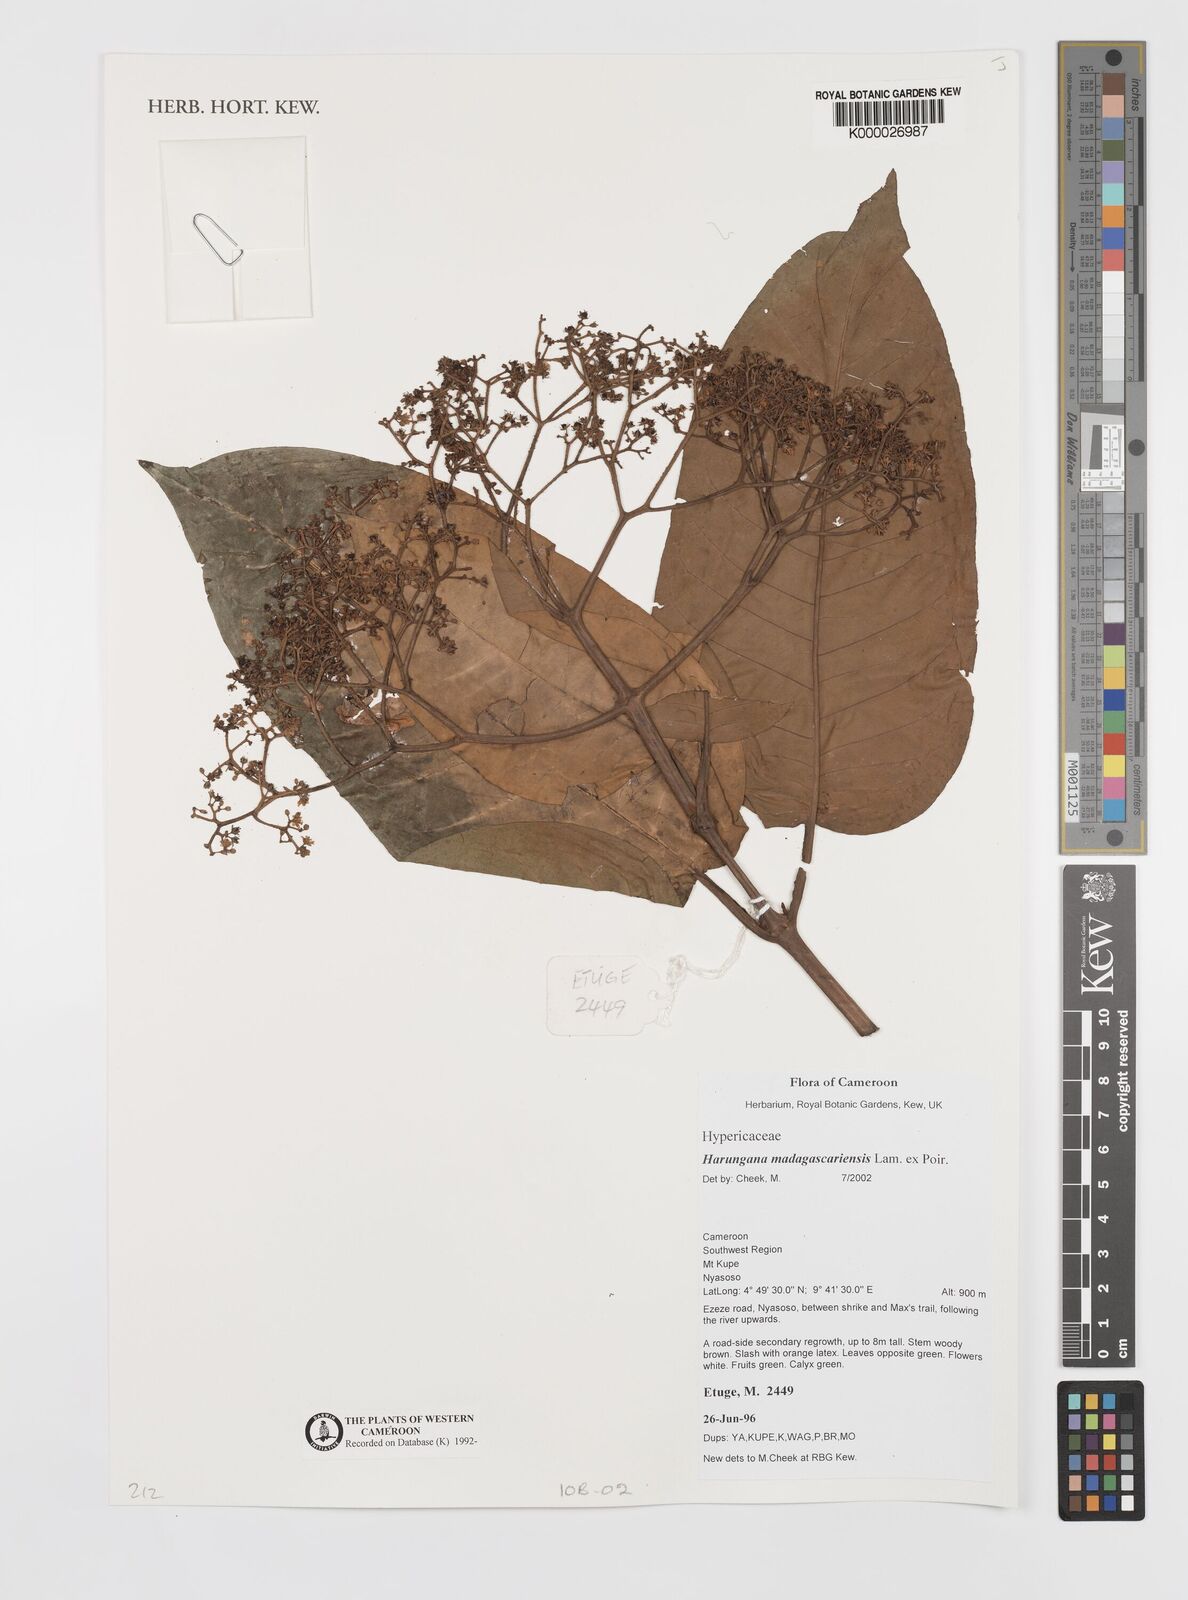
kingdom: Plantae
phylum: Tracheophyta
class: Magnoliopsida
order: Malpighiales
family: Hypericaceae
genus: Harungana
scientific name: Harungana madagascariensis
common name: Orange milktree
